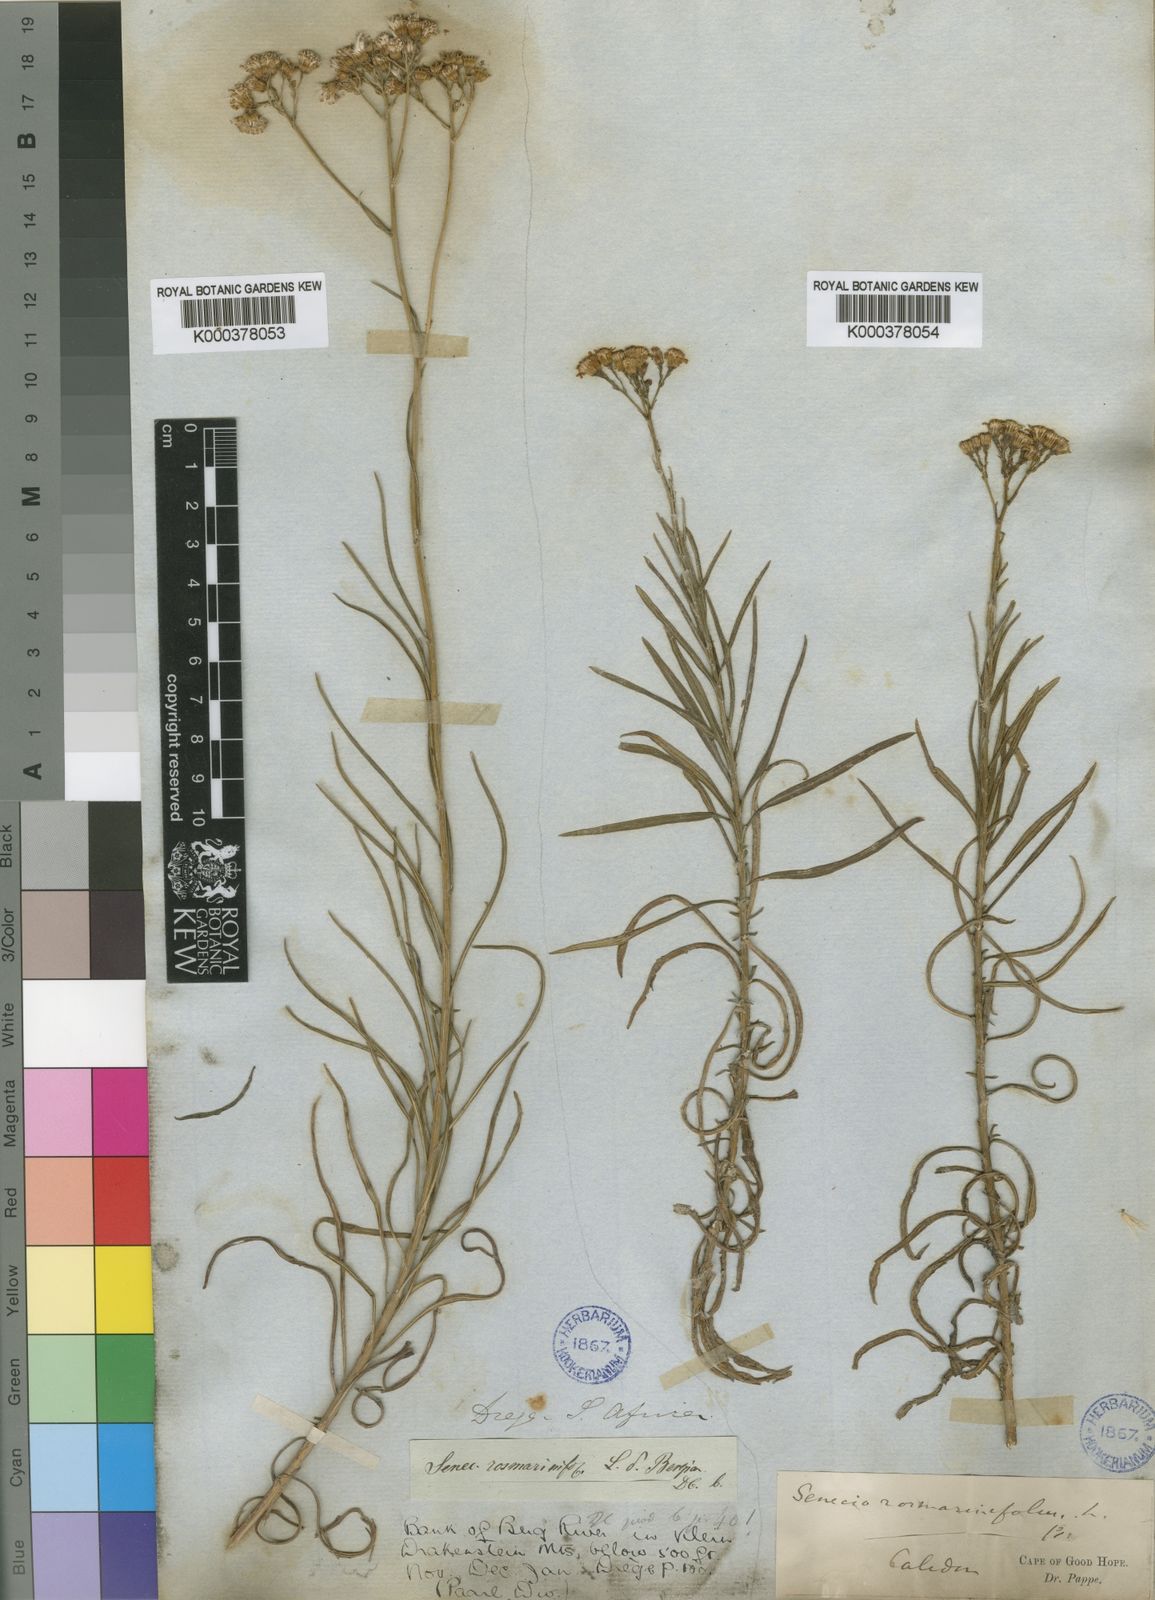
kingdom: Plantae
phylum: Tracheophyta
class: Magnoliopsida
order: Asterales
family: Asteraceae
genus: Senecio
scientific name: Senecio rosmarinifolius
